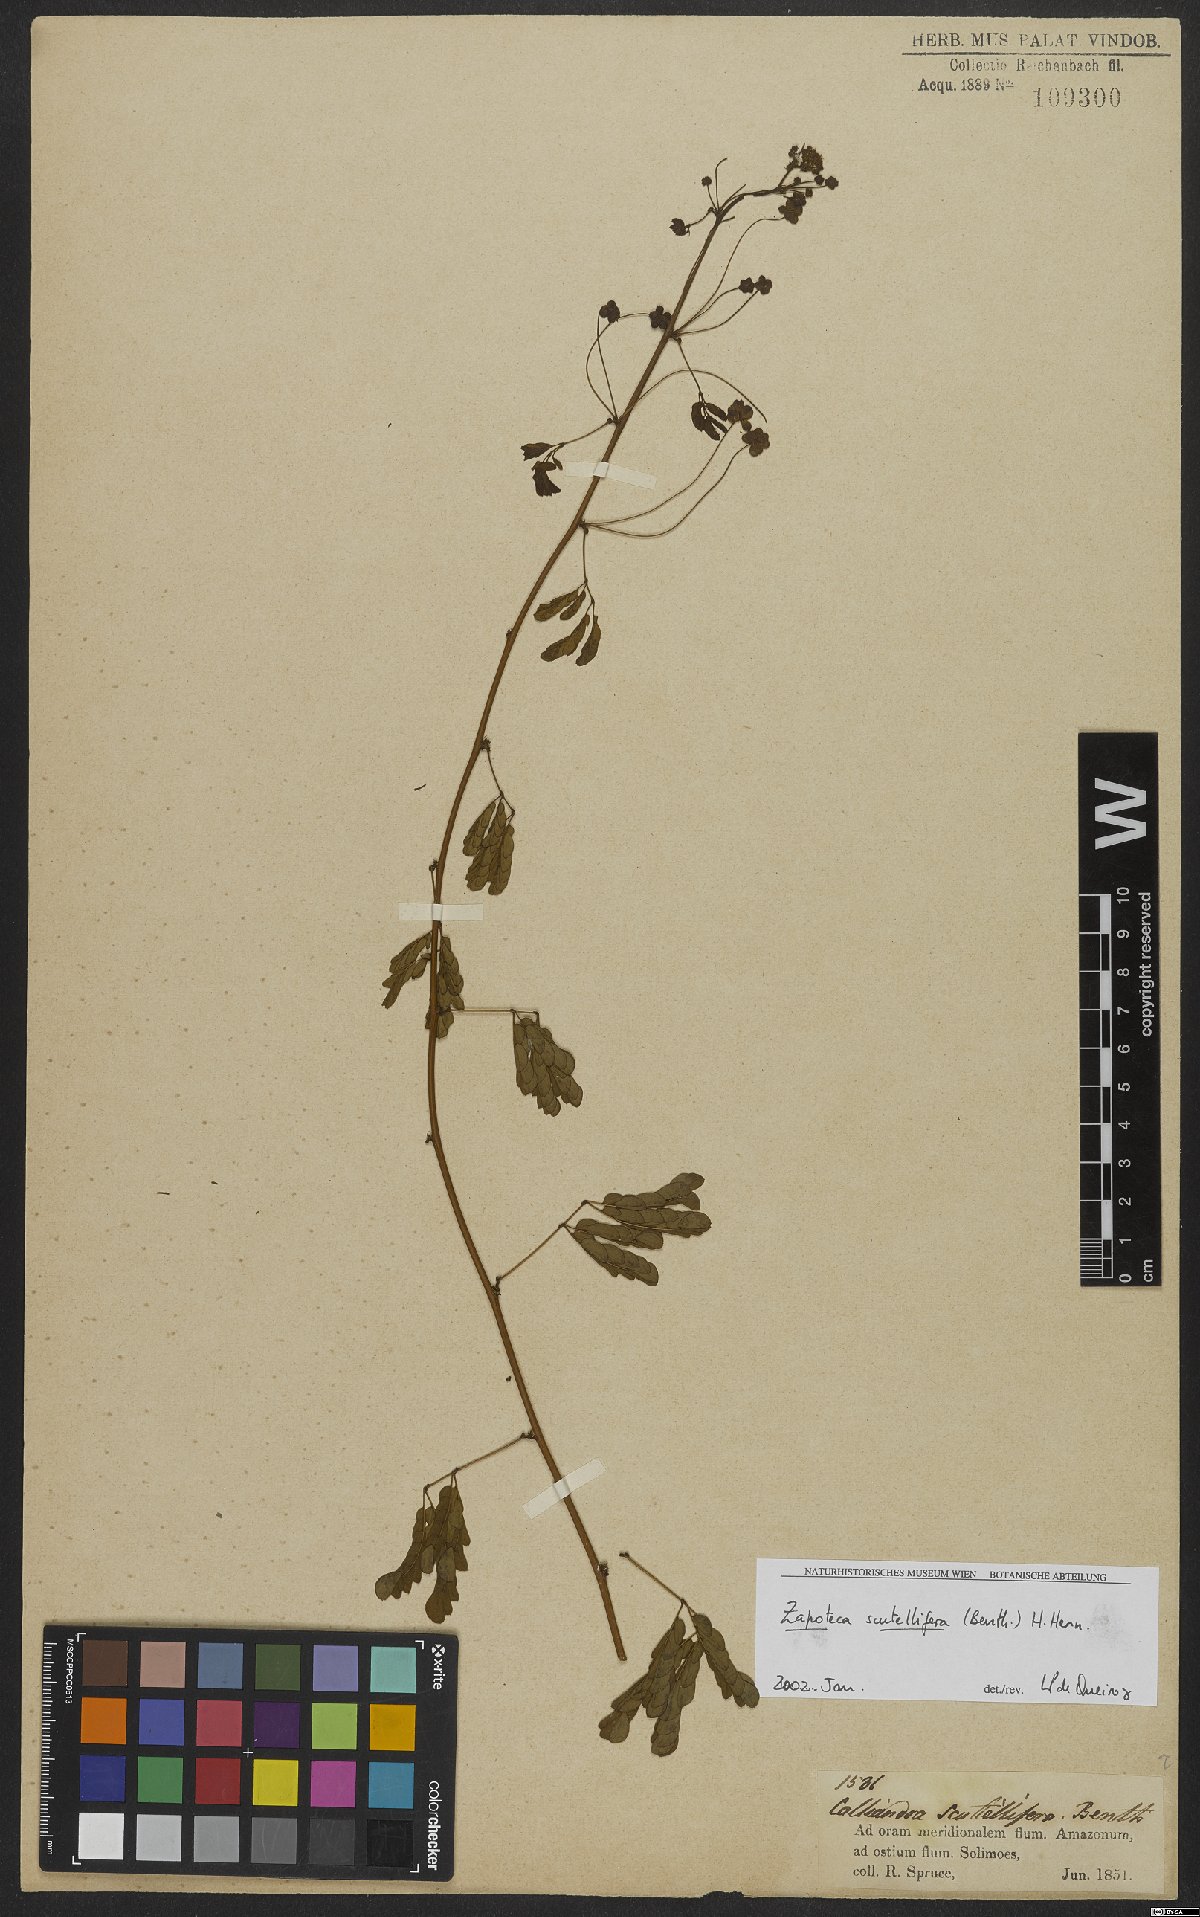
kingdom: Plantae
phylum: Tracheophyta
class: Magnoliopsida
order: Fabales
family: Fabaceae
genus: Zapoteca
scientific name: Zapoteca scutellifera
